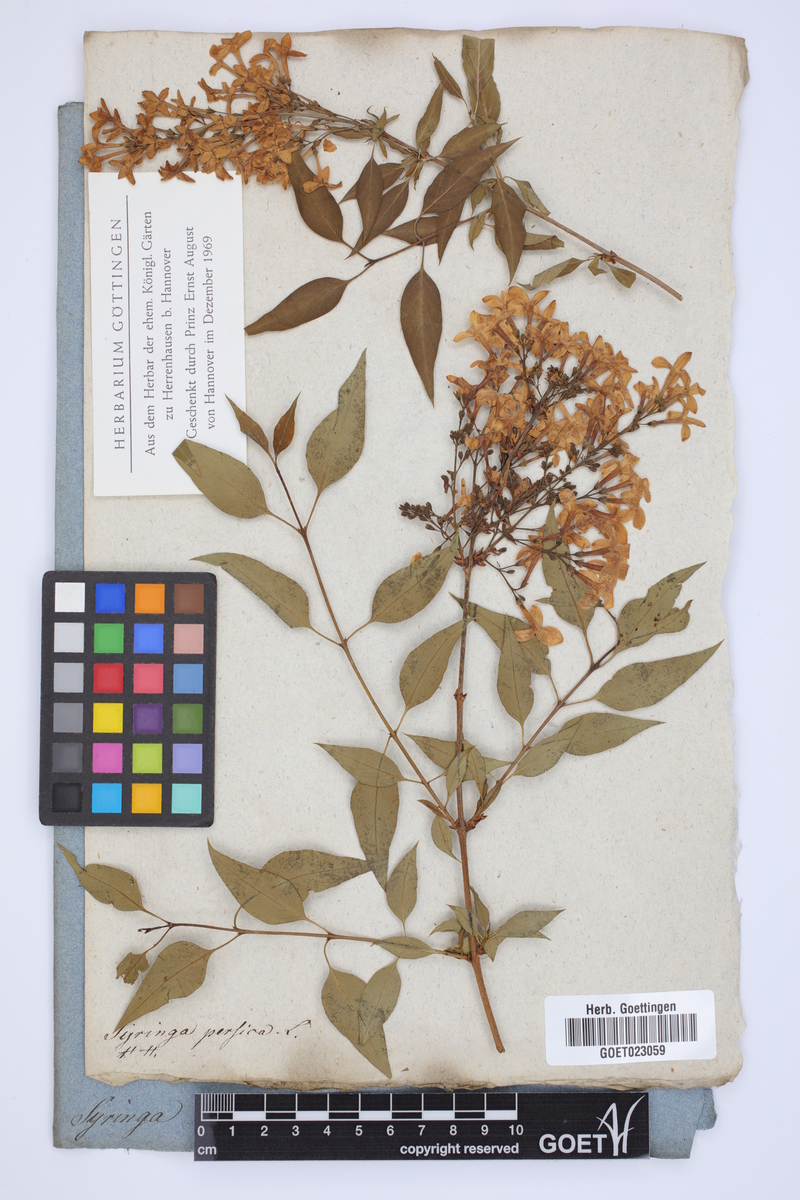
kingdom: Plantae
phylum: Tracheophyta
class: Magnoliopsida
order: Lamiales
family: Oleaceae
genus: Syringa
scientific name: Syringa persica
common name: Persian lilac
